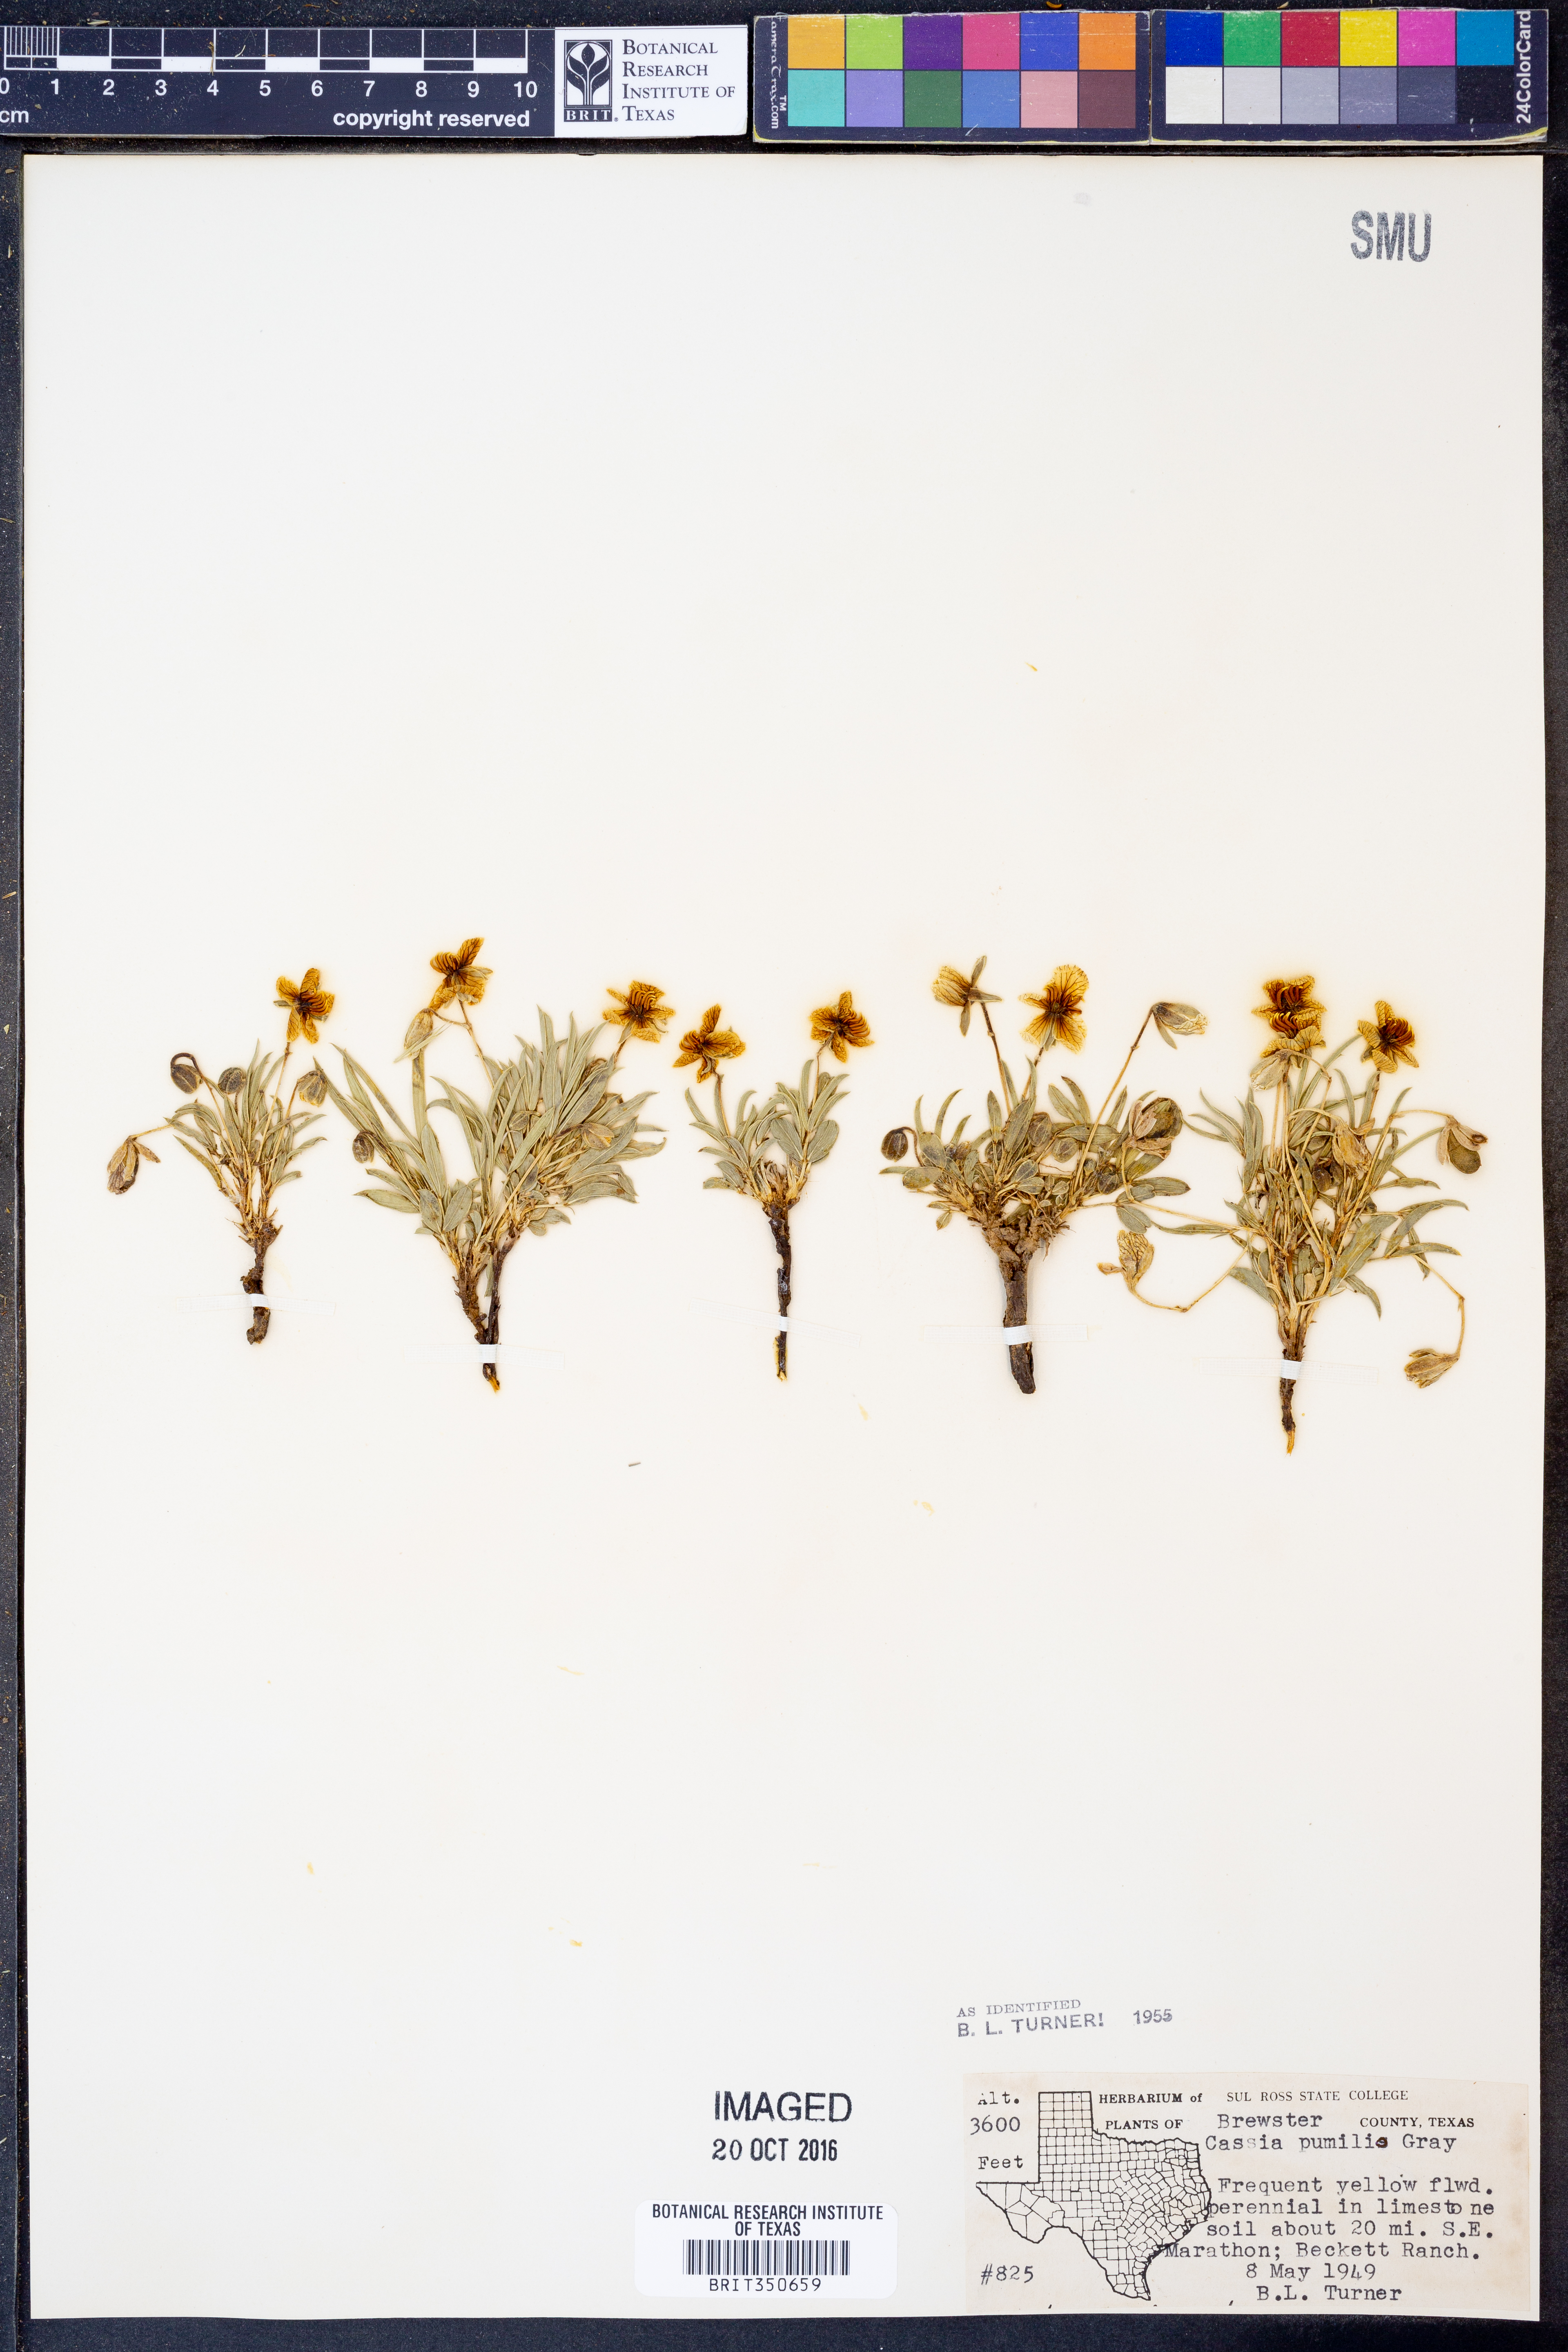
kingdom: Plantae
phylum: Tracheophyta
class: Magnoliopsida
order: Fabales
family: Fabaceae
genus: Senna
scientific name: Senna pumilio
